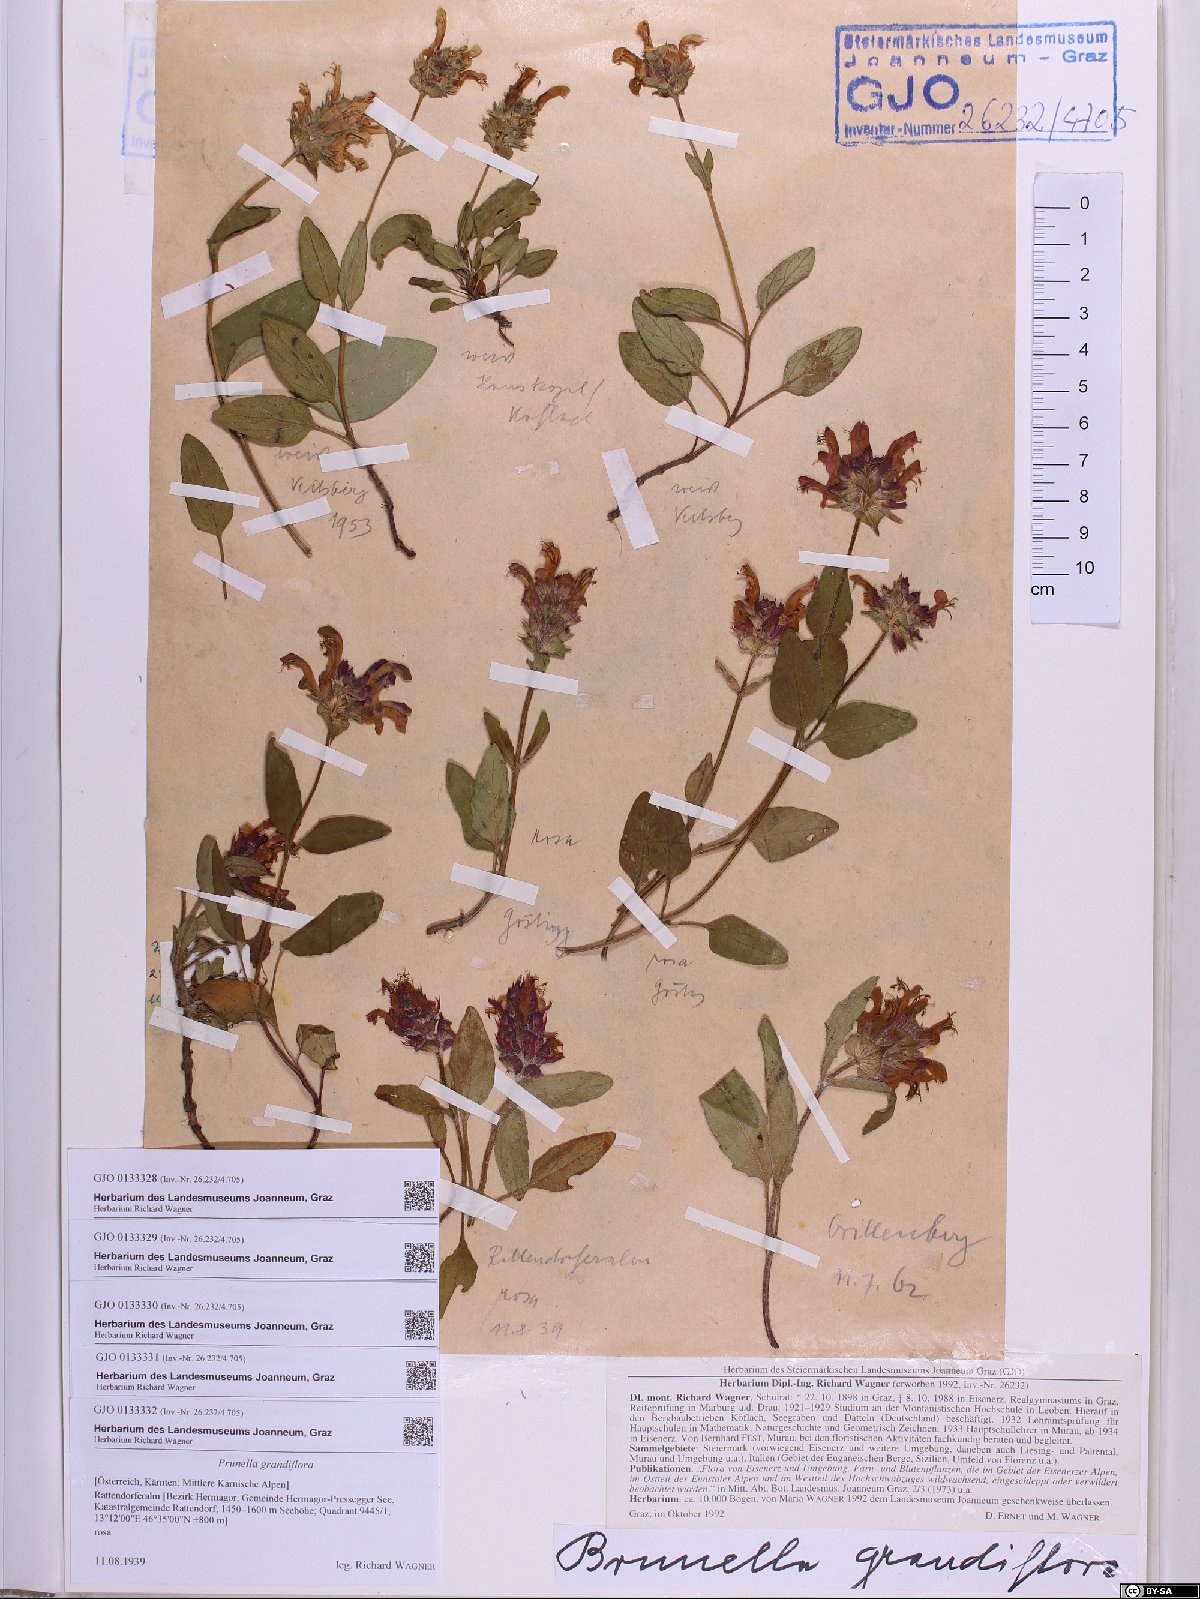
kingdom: Plantae
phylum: Tracheophyta
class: Magnoliopsida
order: Lamiales
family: Lamiaceae
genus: Prunella
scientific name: Prunella grandiflora
